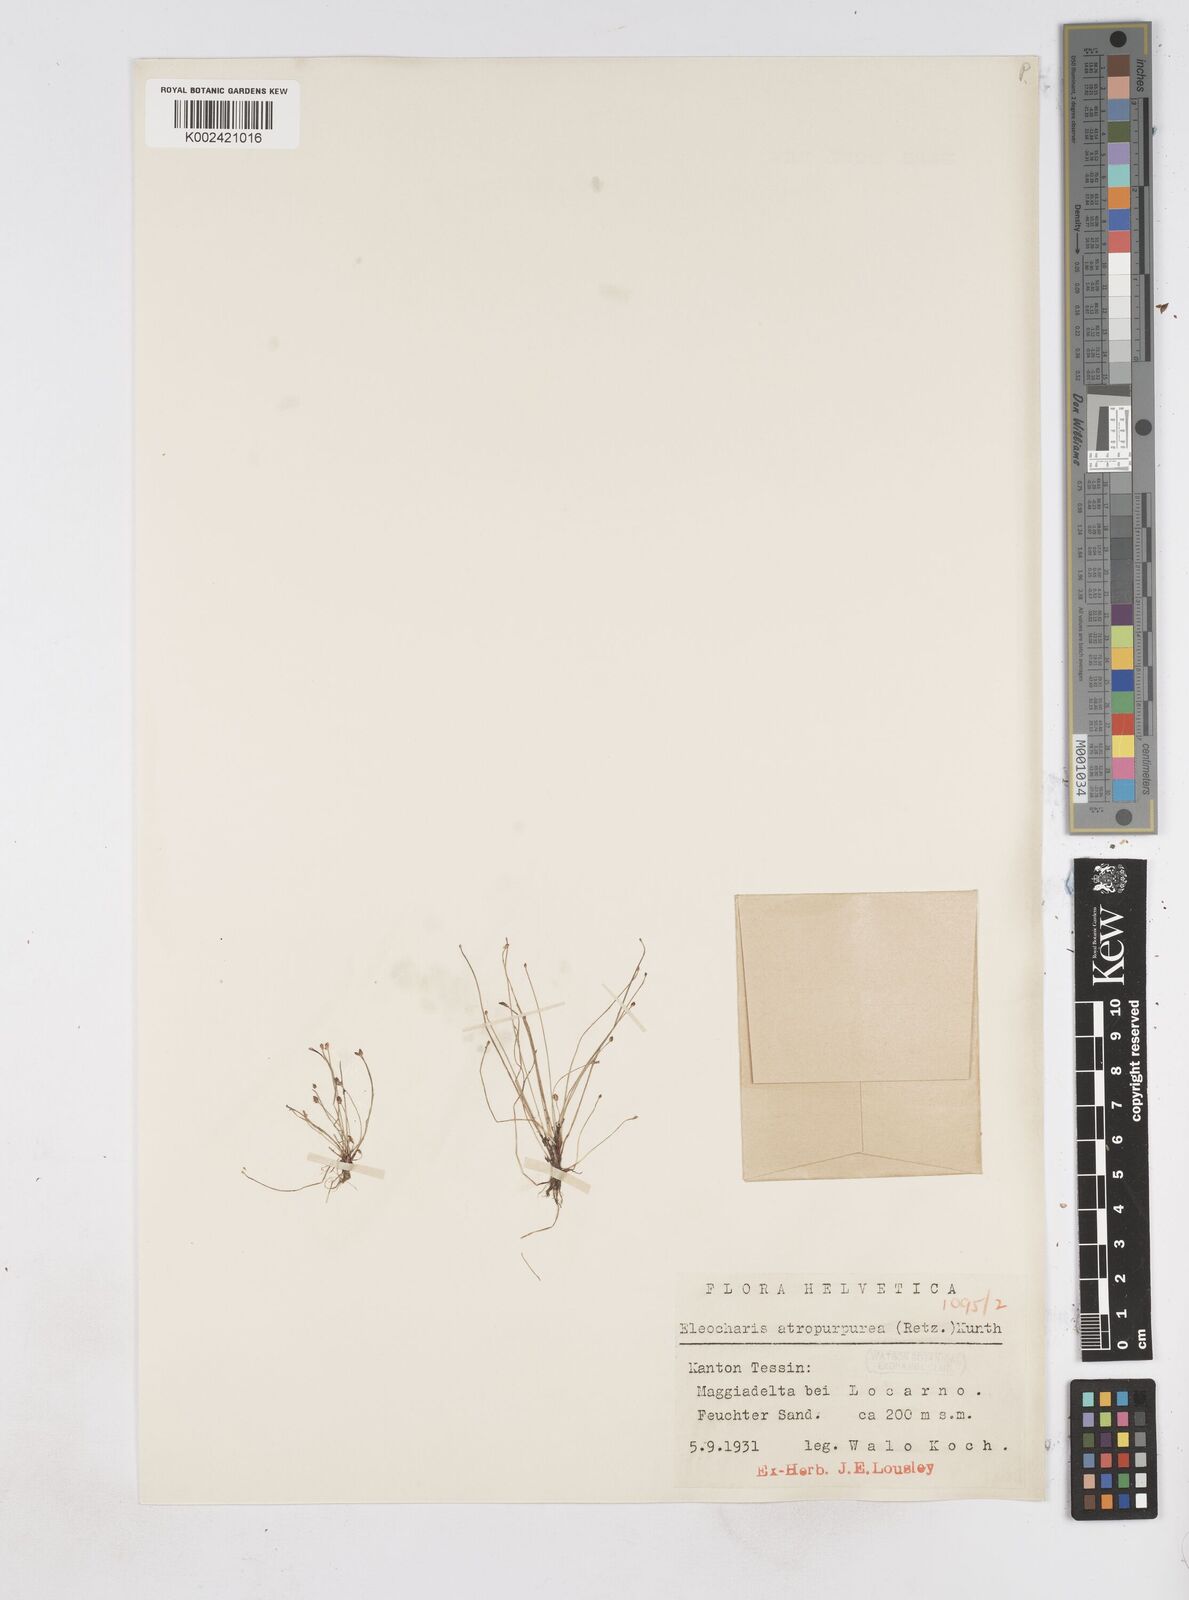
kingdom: Plantae
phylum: Tracheophyta
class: Liliopsida
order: Poales
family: Cyperaceae
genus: Eleocharis
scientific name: Eleocharis atropurpurea
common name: Purple spikerush
